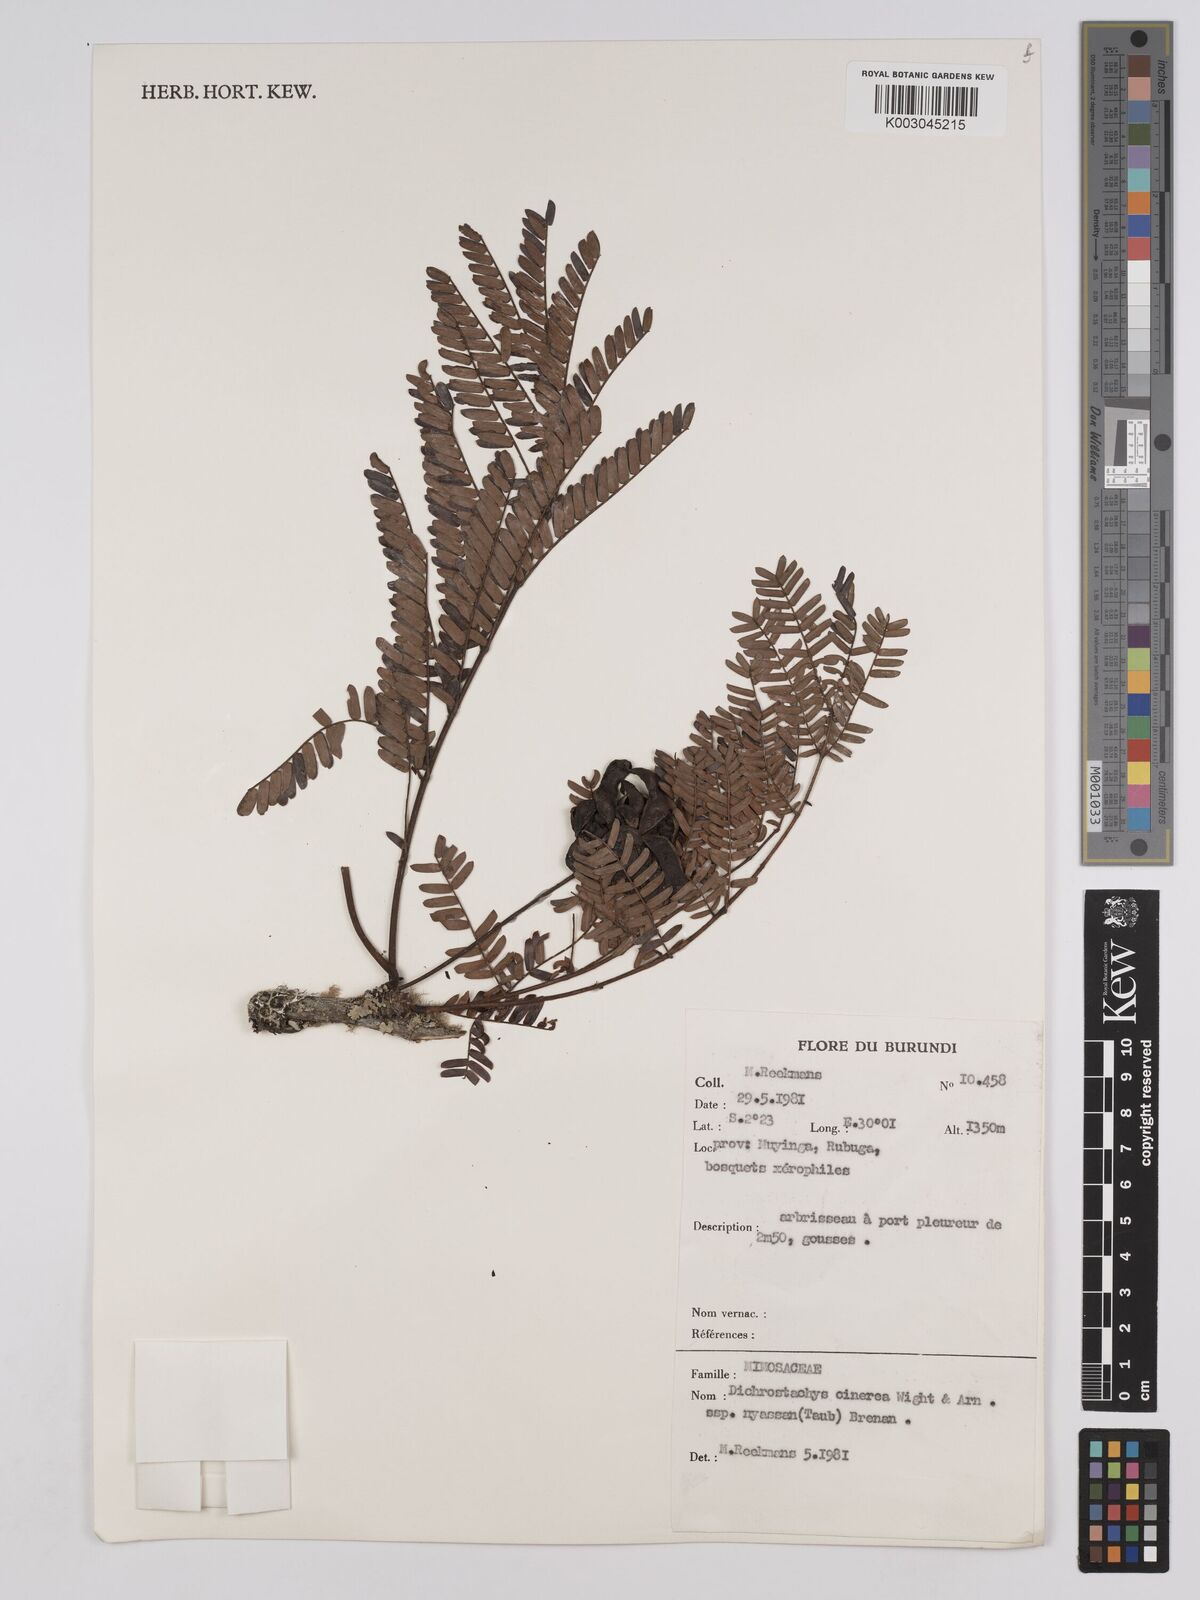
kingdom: Plantae
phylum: Tracheophyta
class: Magnoliopsida
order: Fabales
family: Fabaceae
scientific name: Fabaceae
